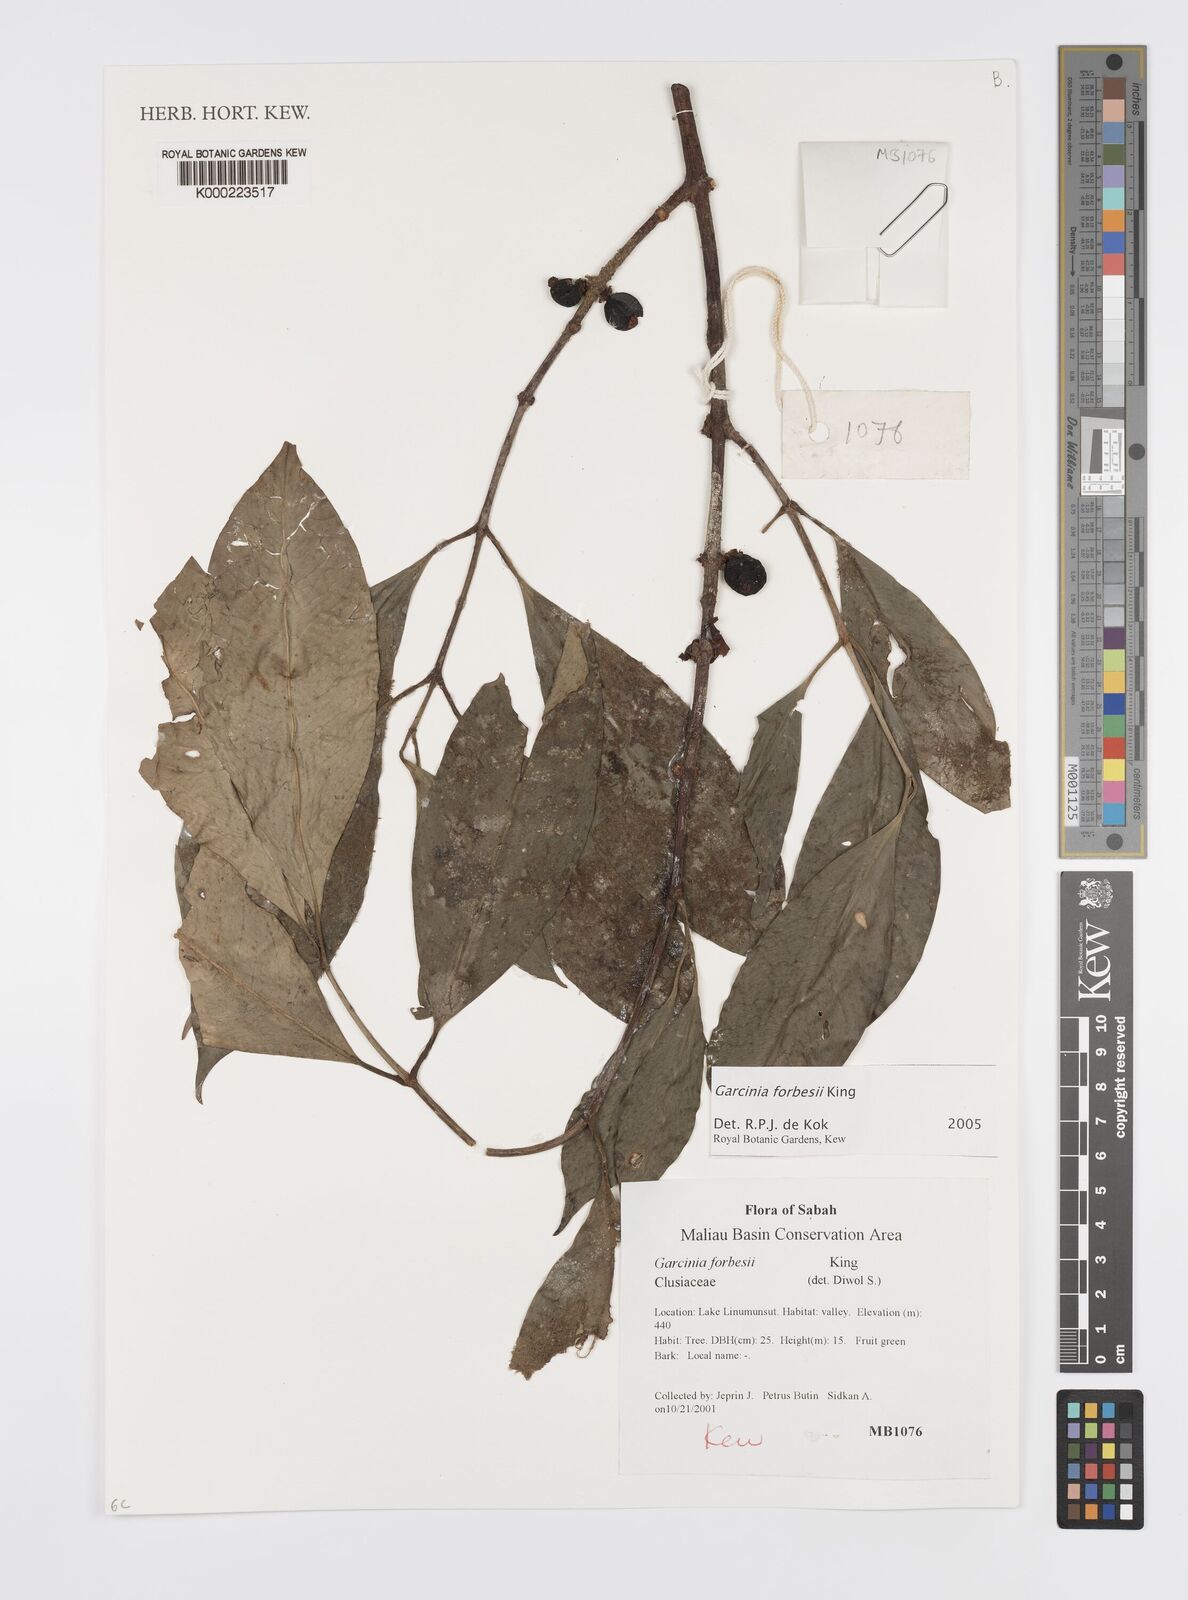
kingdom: Plantae
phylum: Tracheophyta
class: Magnoliopsida
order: Malpighiales
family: Clusiaceae
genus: Garcinia
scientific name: Garcinia forbesii
